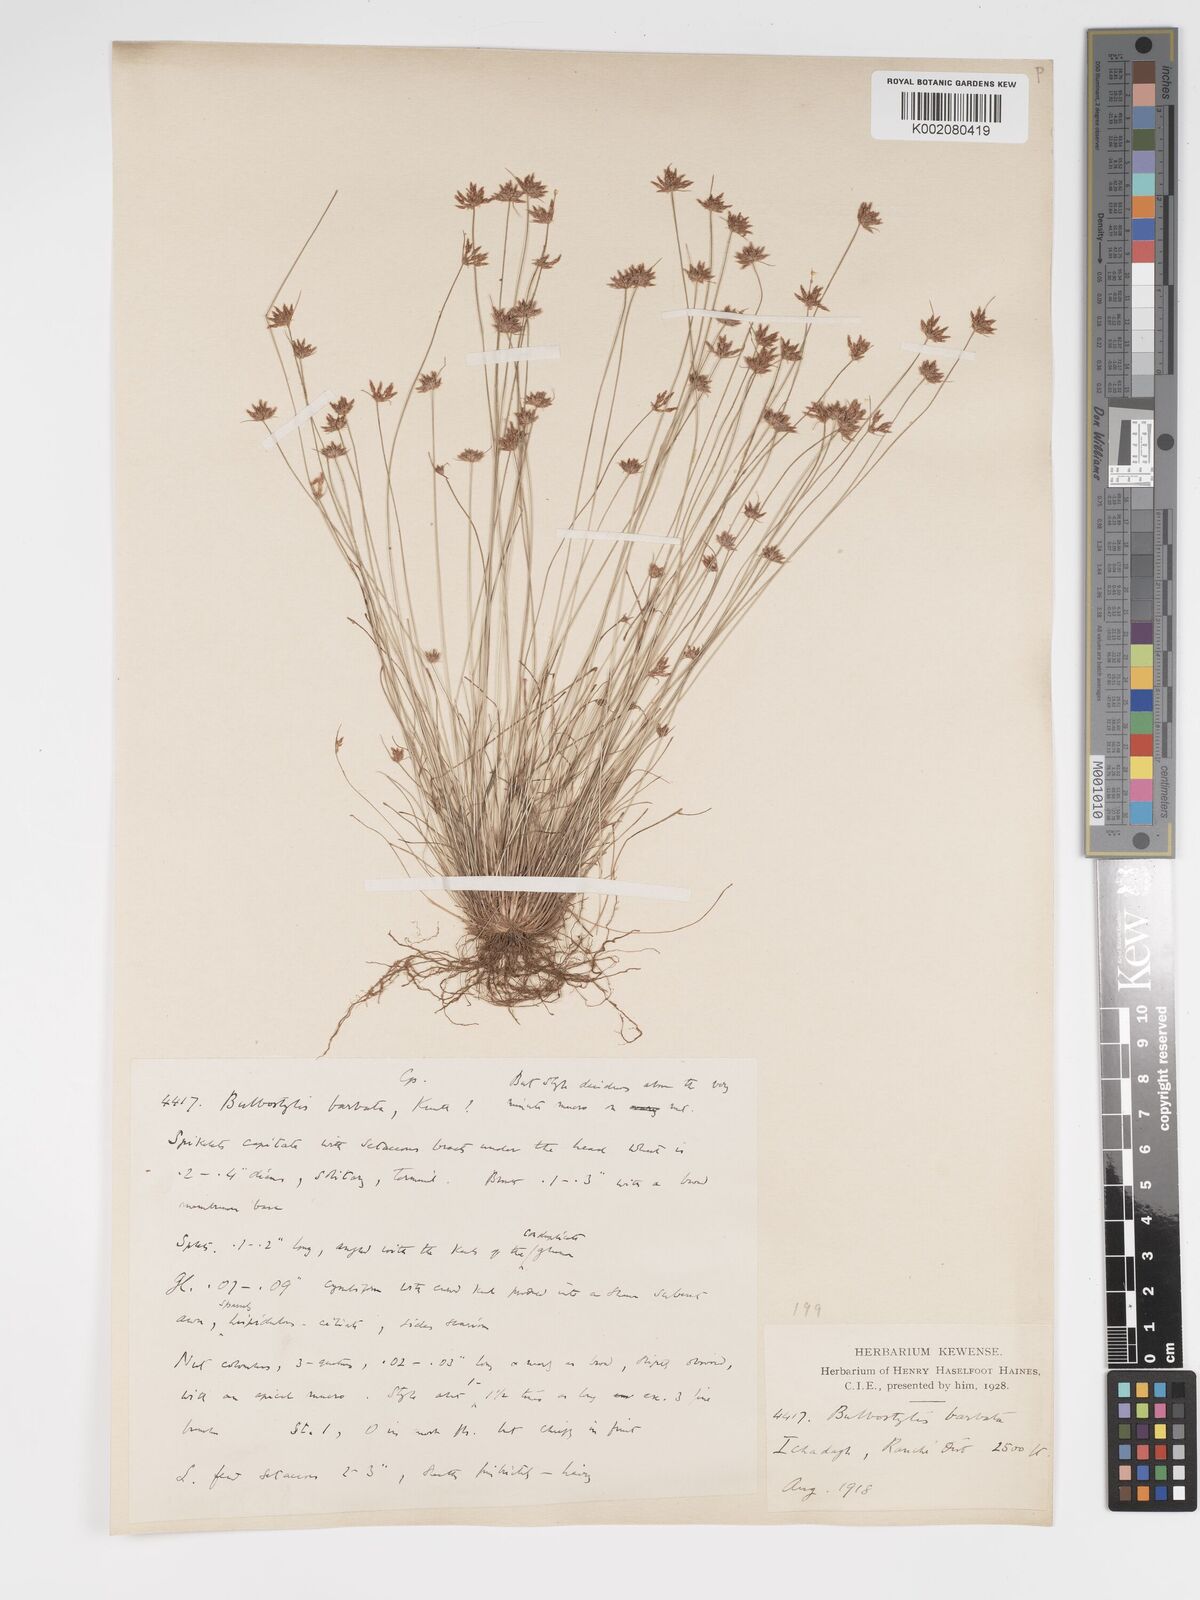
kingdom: Plantae
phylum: Tracheophyta
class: Liliopsida
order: Poales
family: Cyperaceae
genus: Bulbostylis
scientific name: Bulbostylis
